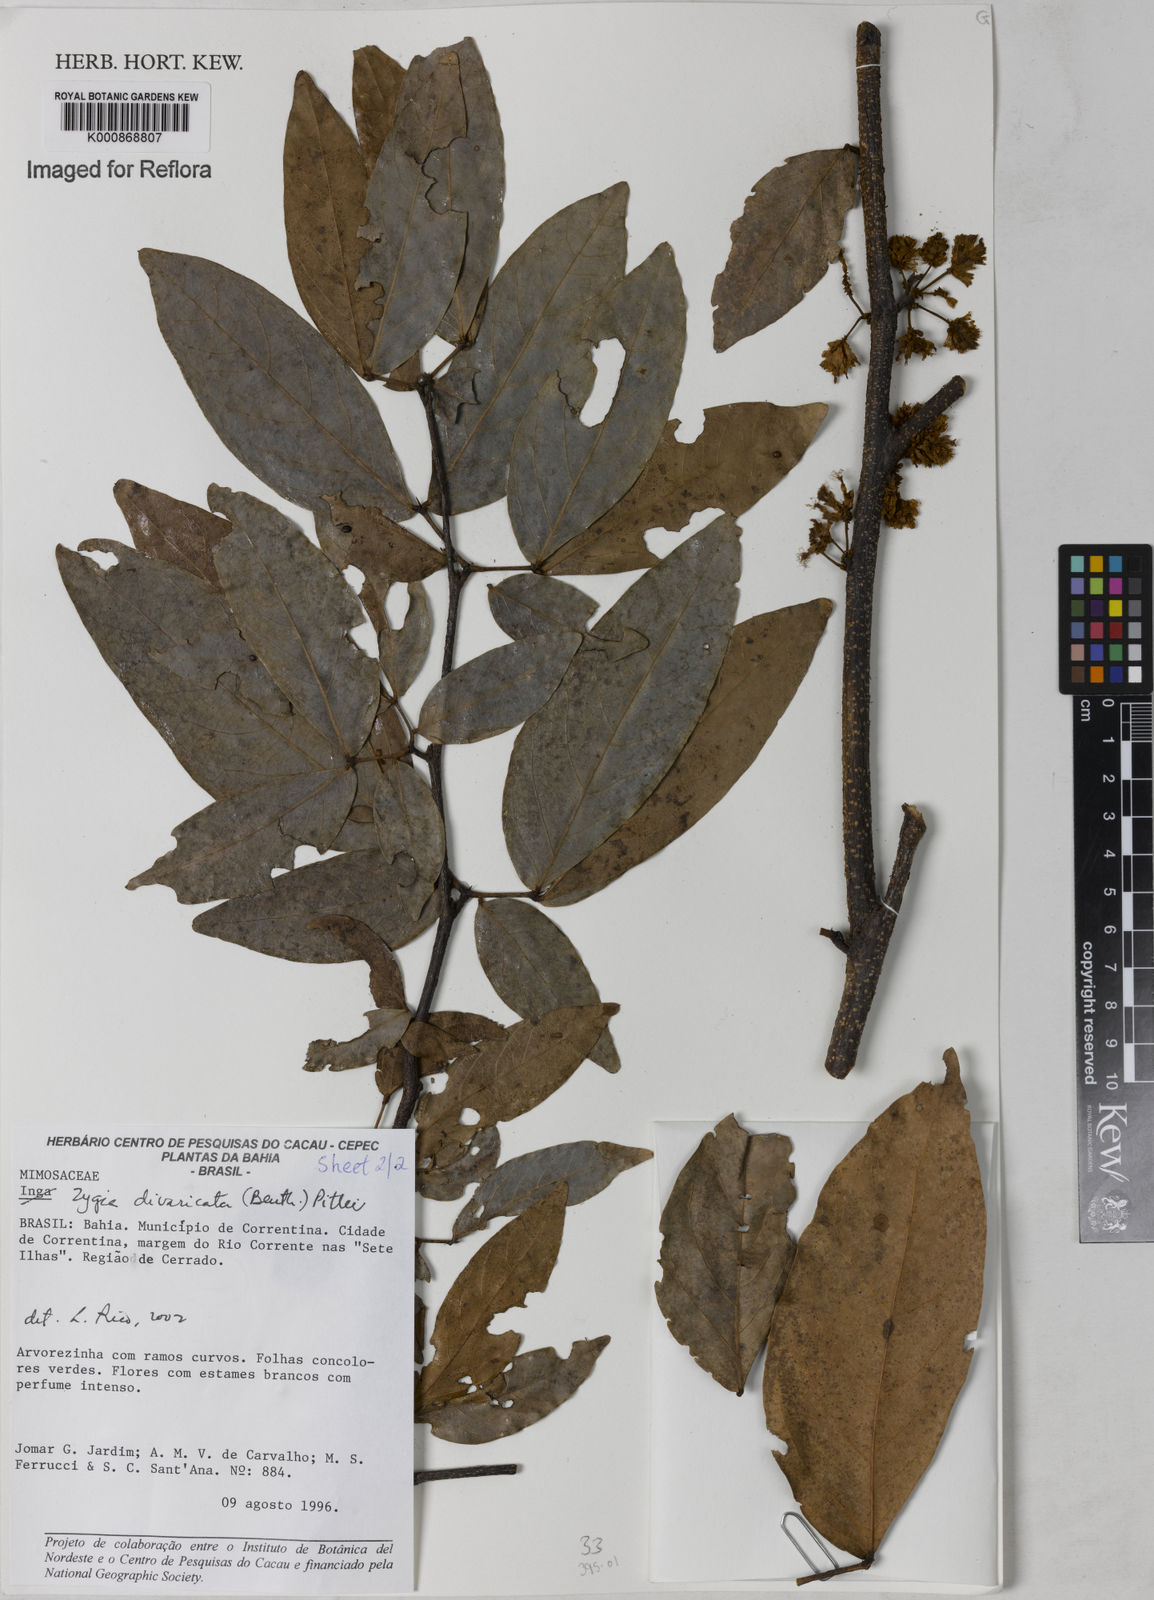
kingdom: Plantae
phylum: Tracheophyta
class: Magnoliopsida
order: Fabales
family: Fabaceae
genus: Zygia
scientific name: Zygia cataractae
